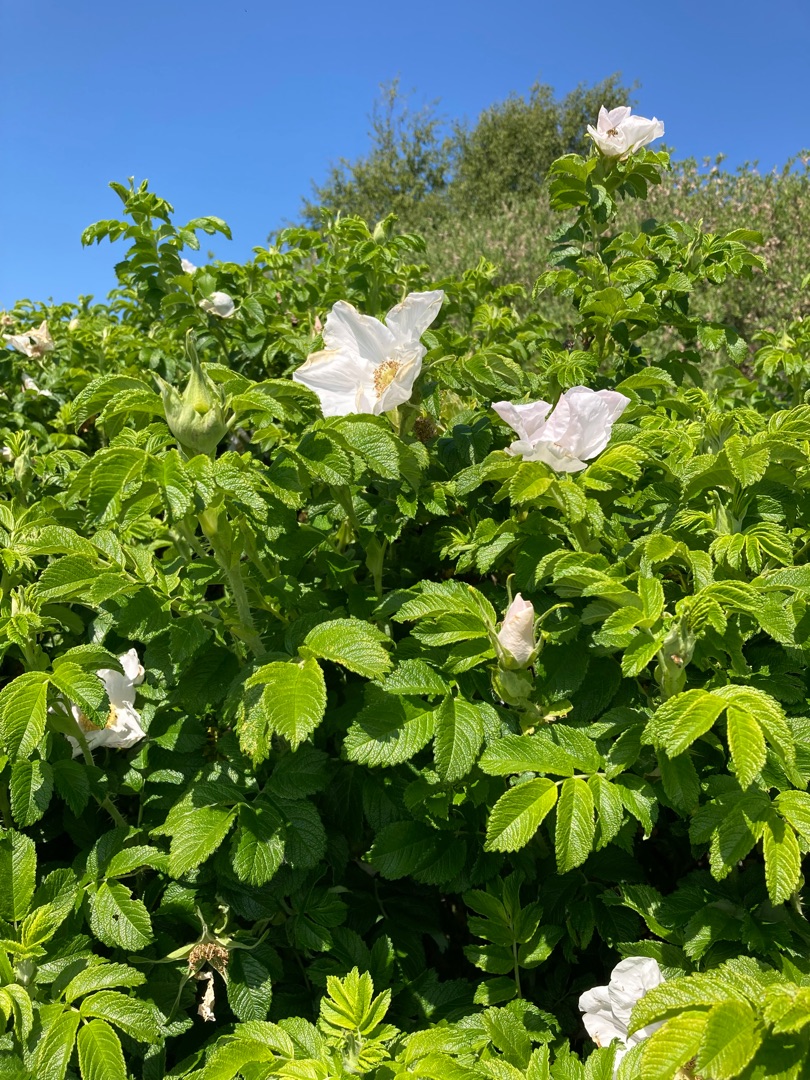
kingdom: Plantae
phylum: Tracheophyta
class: Magnoliopsida
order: Rosales
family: Rosaceae
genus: Rosa
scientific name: Rosa rugosa
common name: Rynket rose
